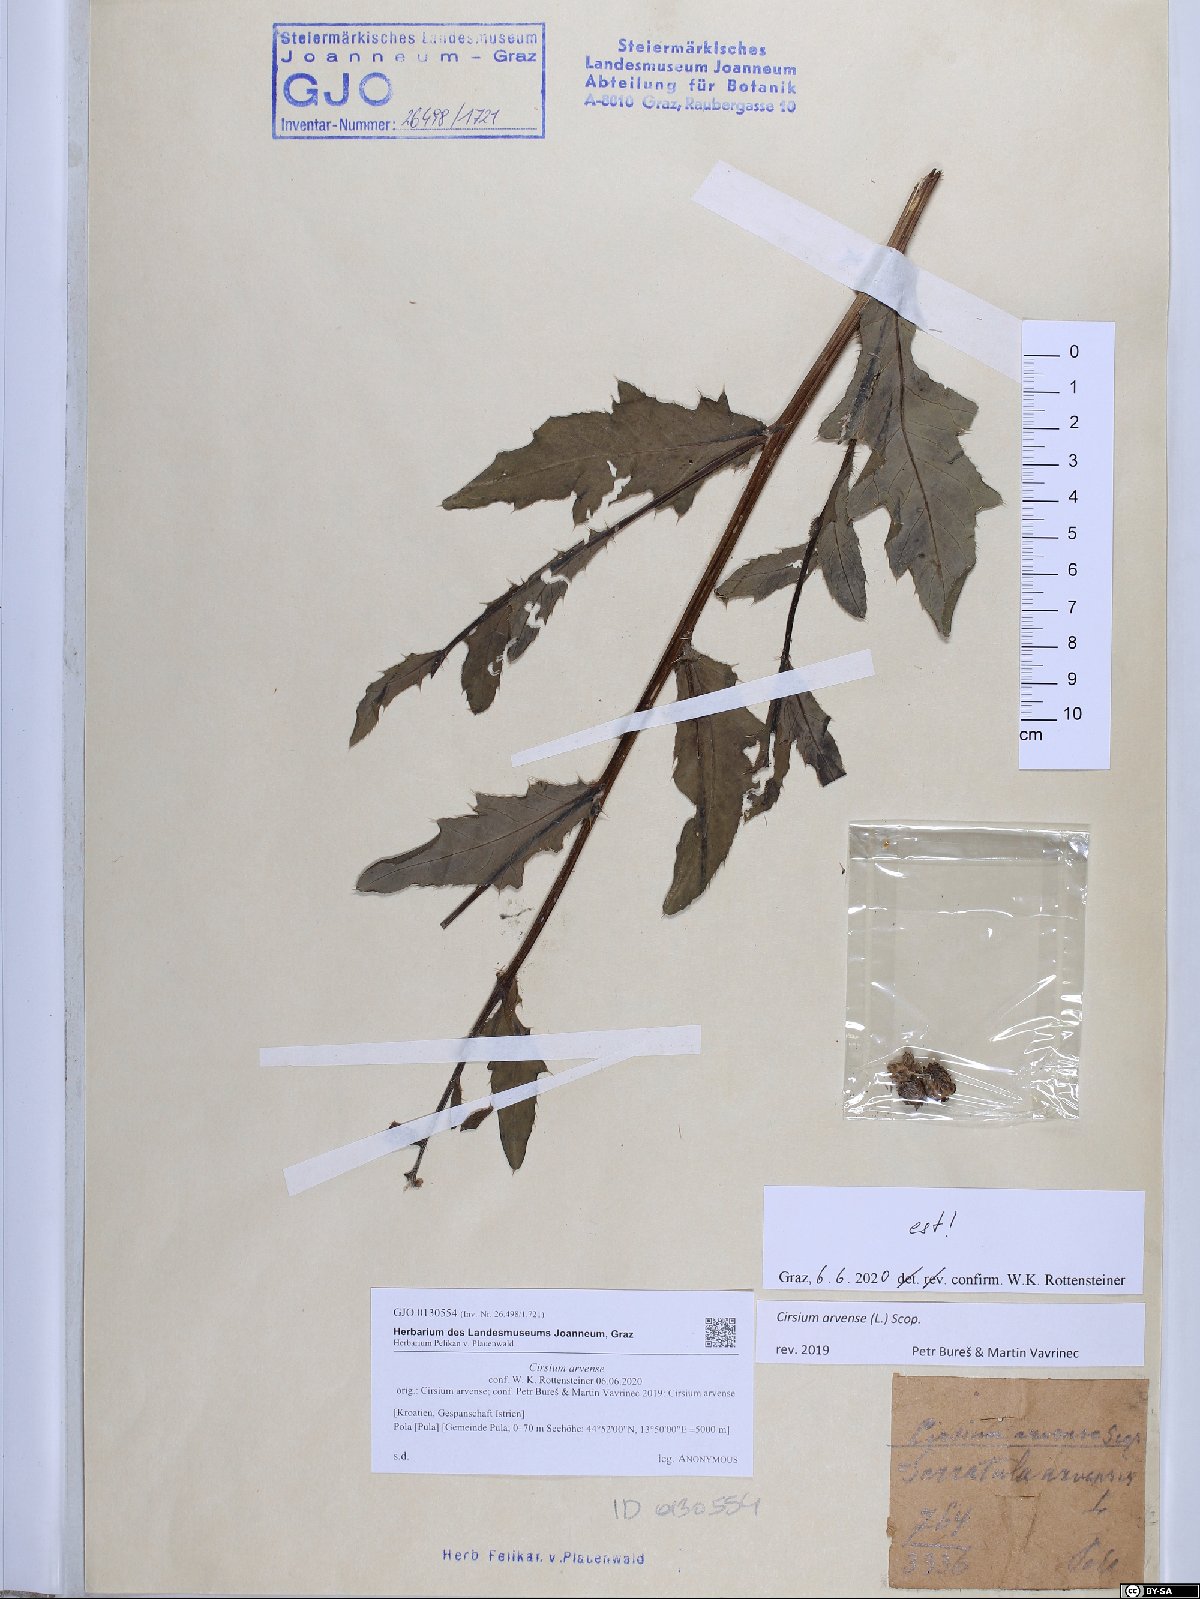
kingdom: Plantae
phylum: Tracheophyta
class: Magnoliopsida
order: Asterales
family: Asteraceae
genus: Cirsium
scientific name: Cirsium arvense
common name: Creeping thistle
